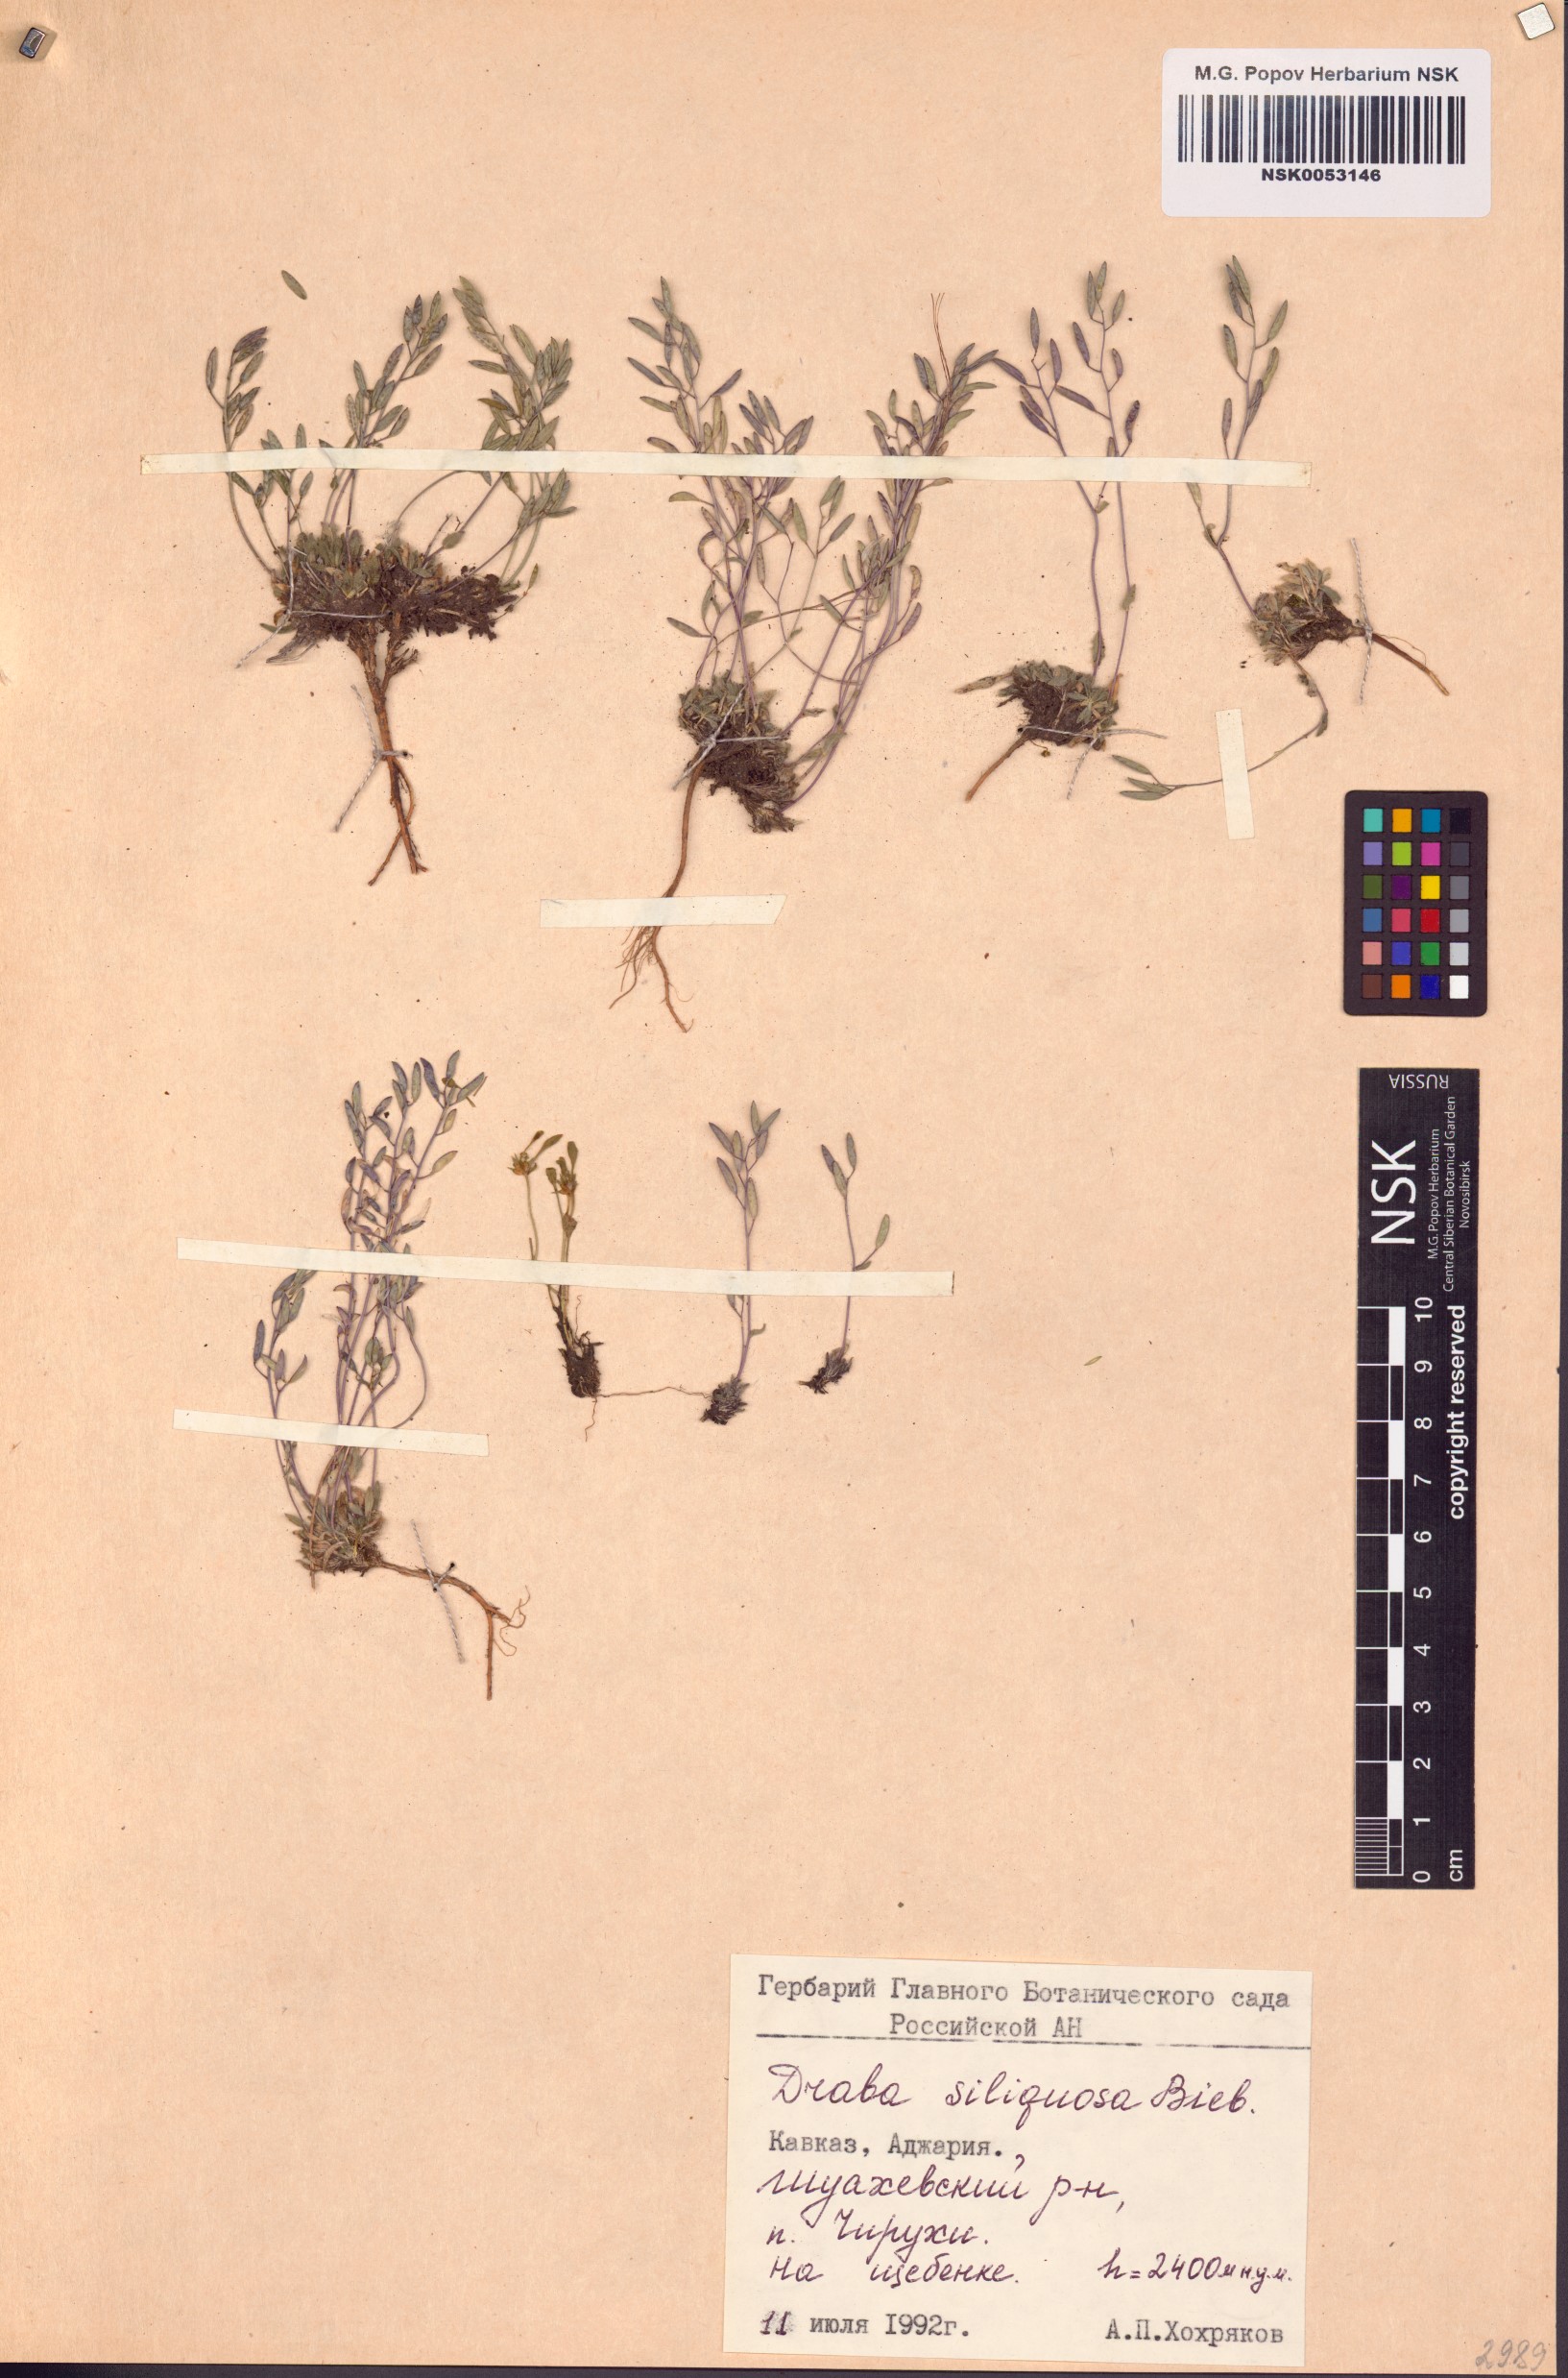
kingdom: Plantae
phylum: Tracheophyta
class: Magnoliopsida
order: Brassicales
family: Brassicaceae
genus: Draba
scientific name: Draba siliquosa
